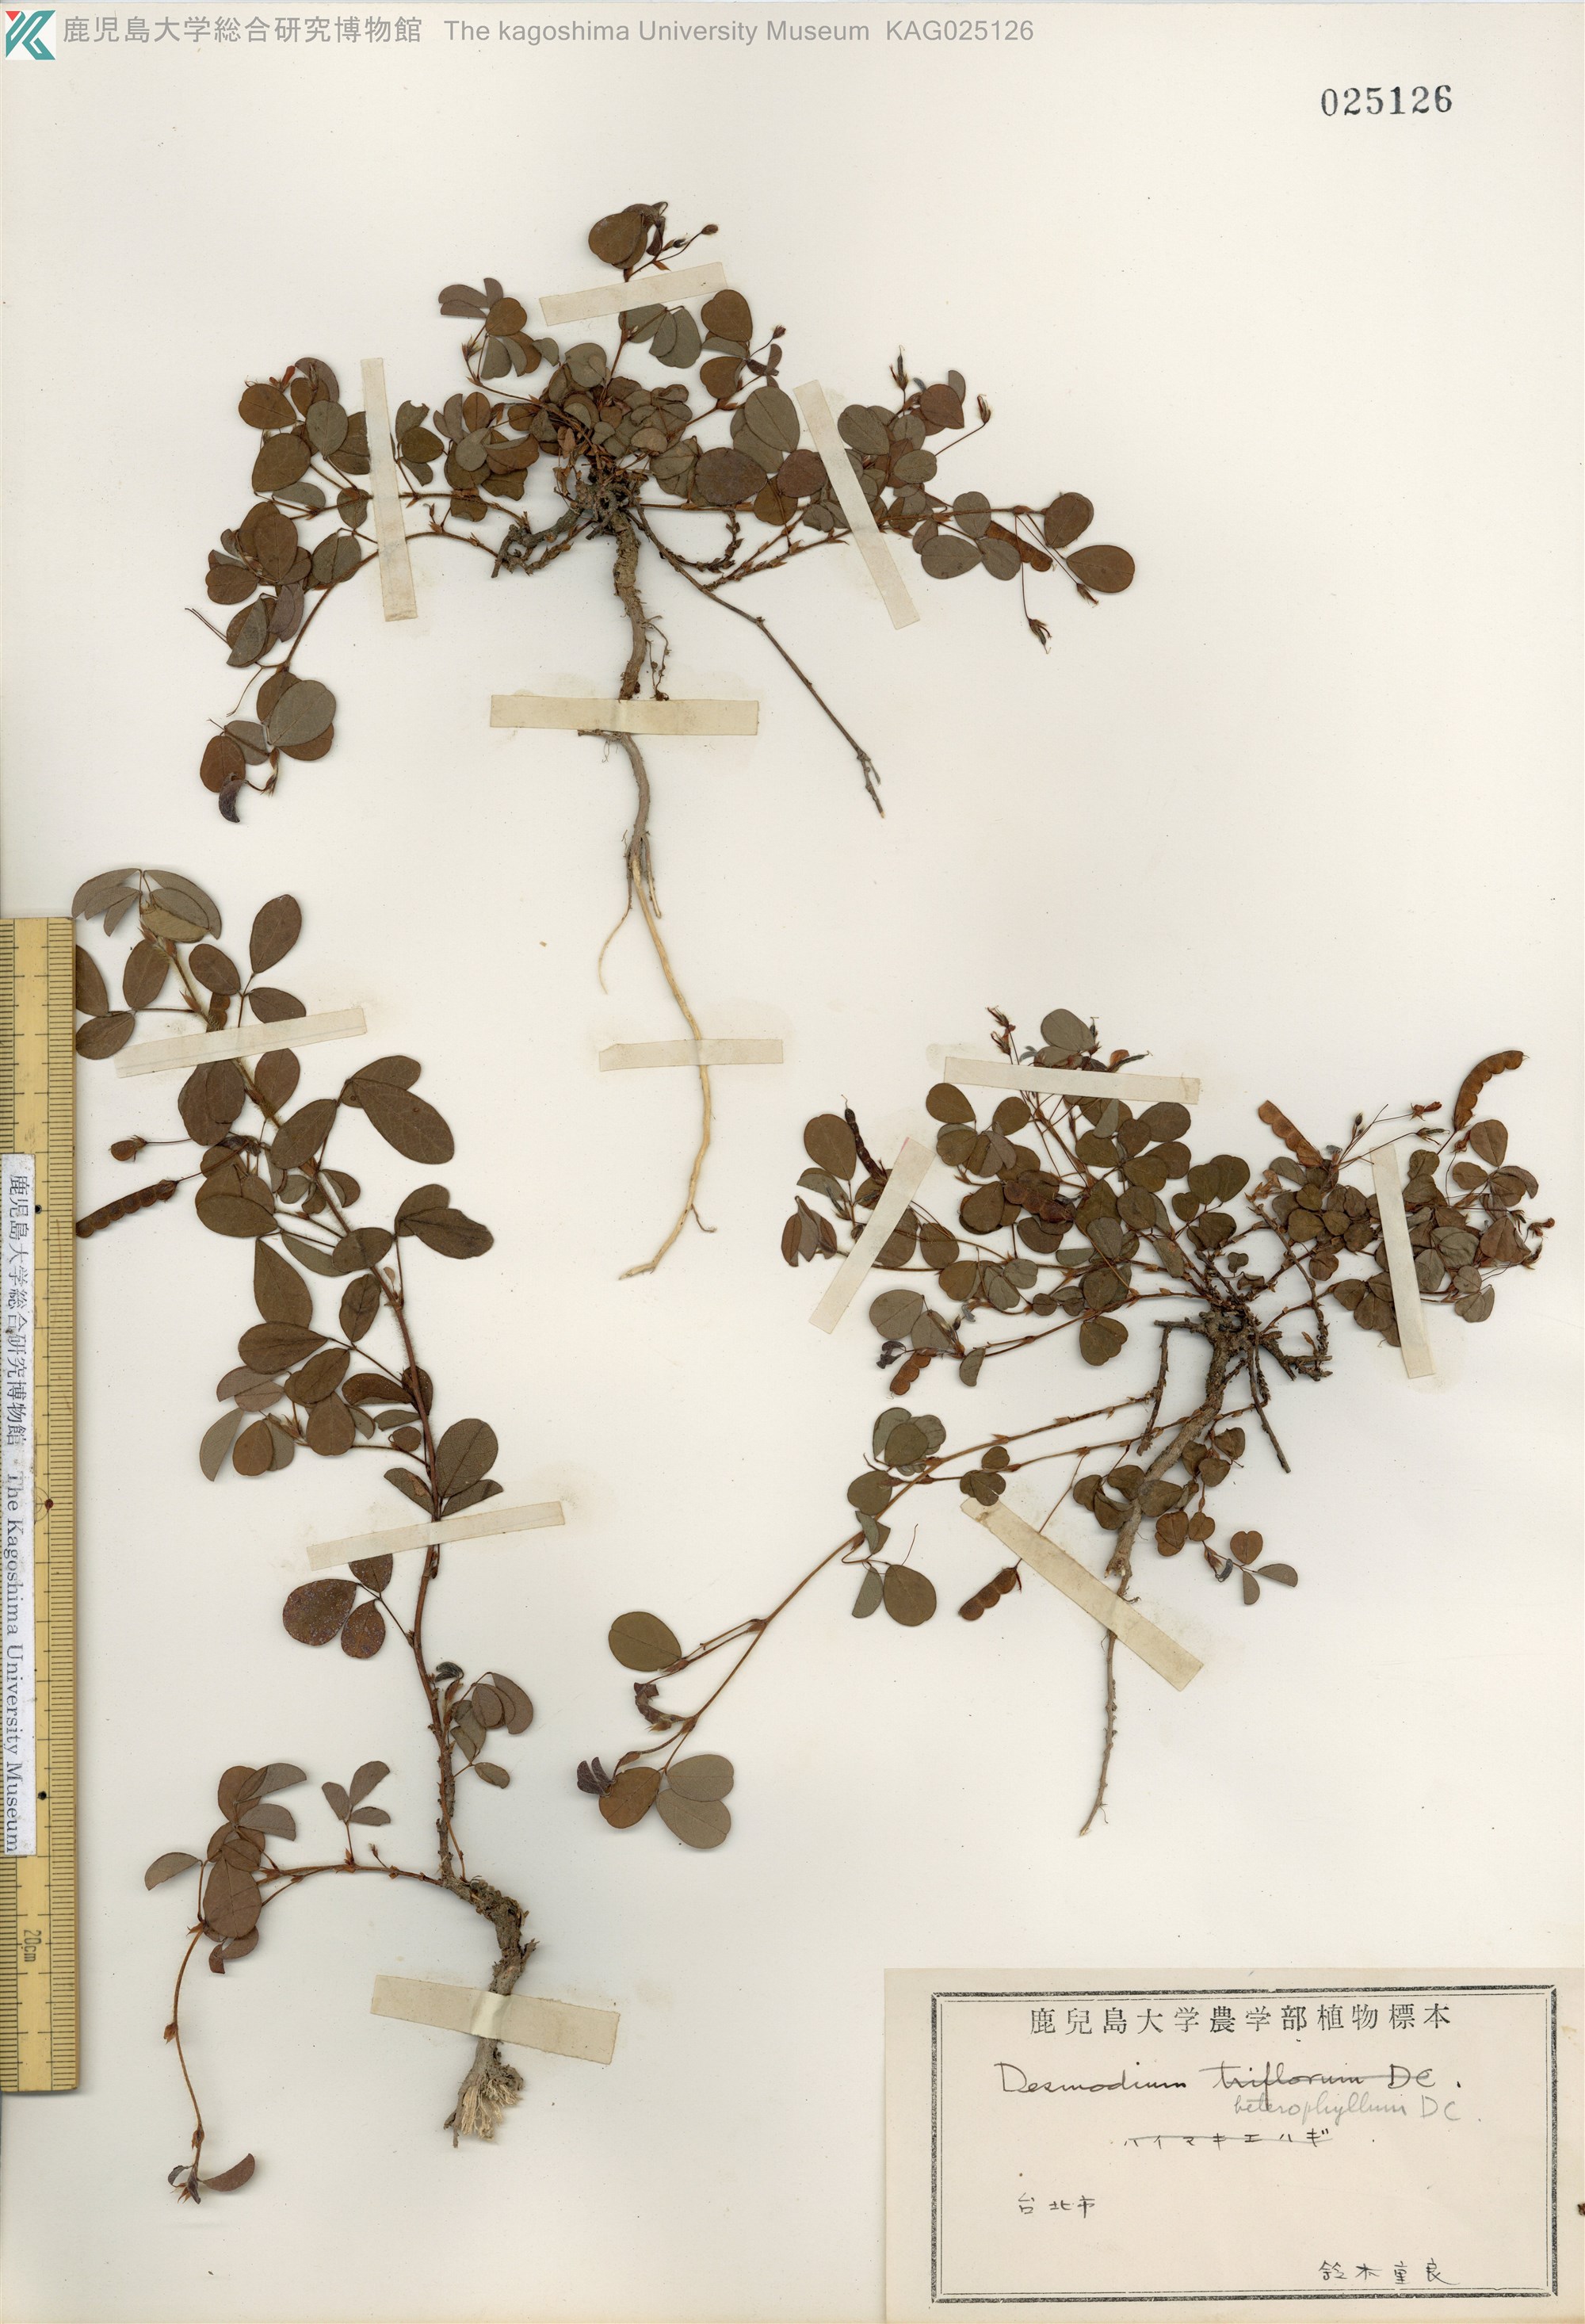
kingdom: Plantae
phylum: Tracheophyta
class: Magnoliopsida
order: Fabales
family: Fabaceae
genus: Desmodium
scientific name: Desmodium heterophyllum
